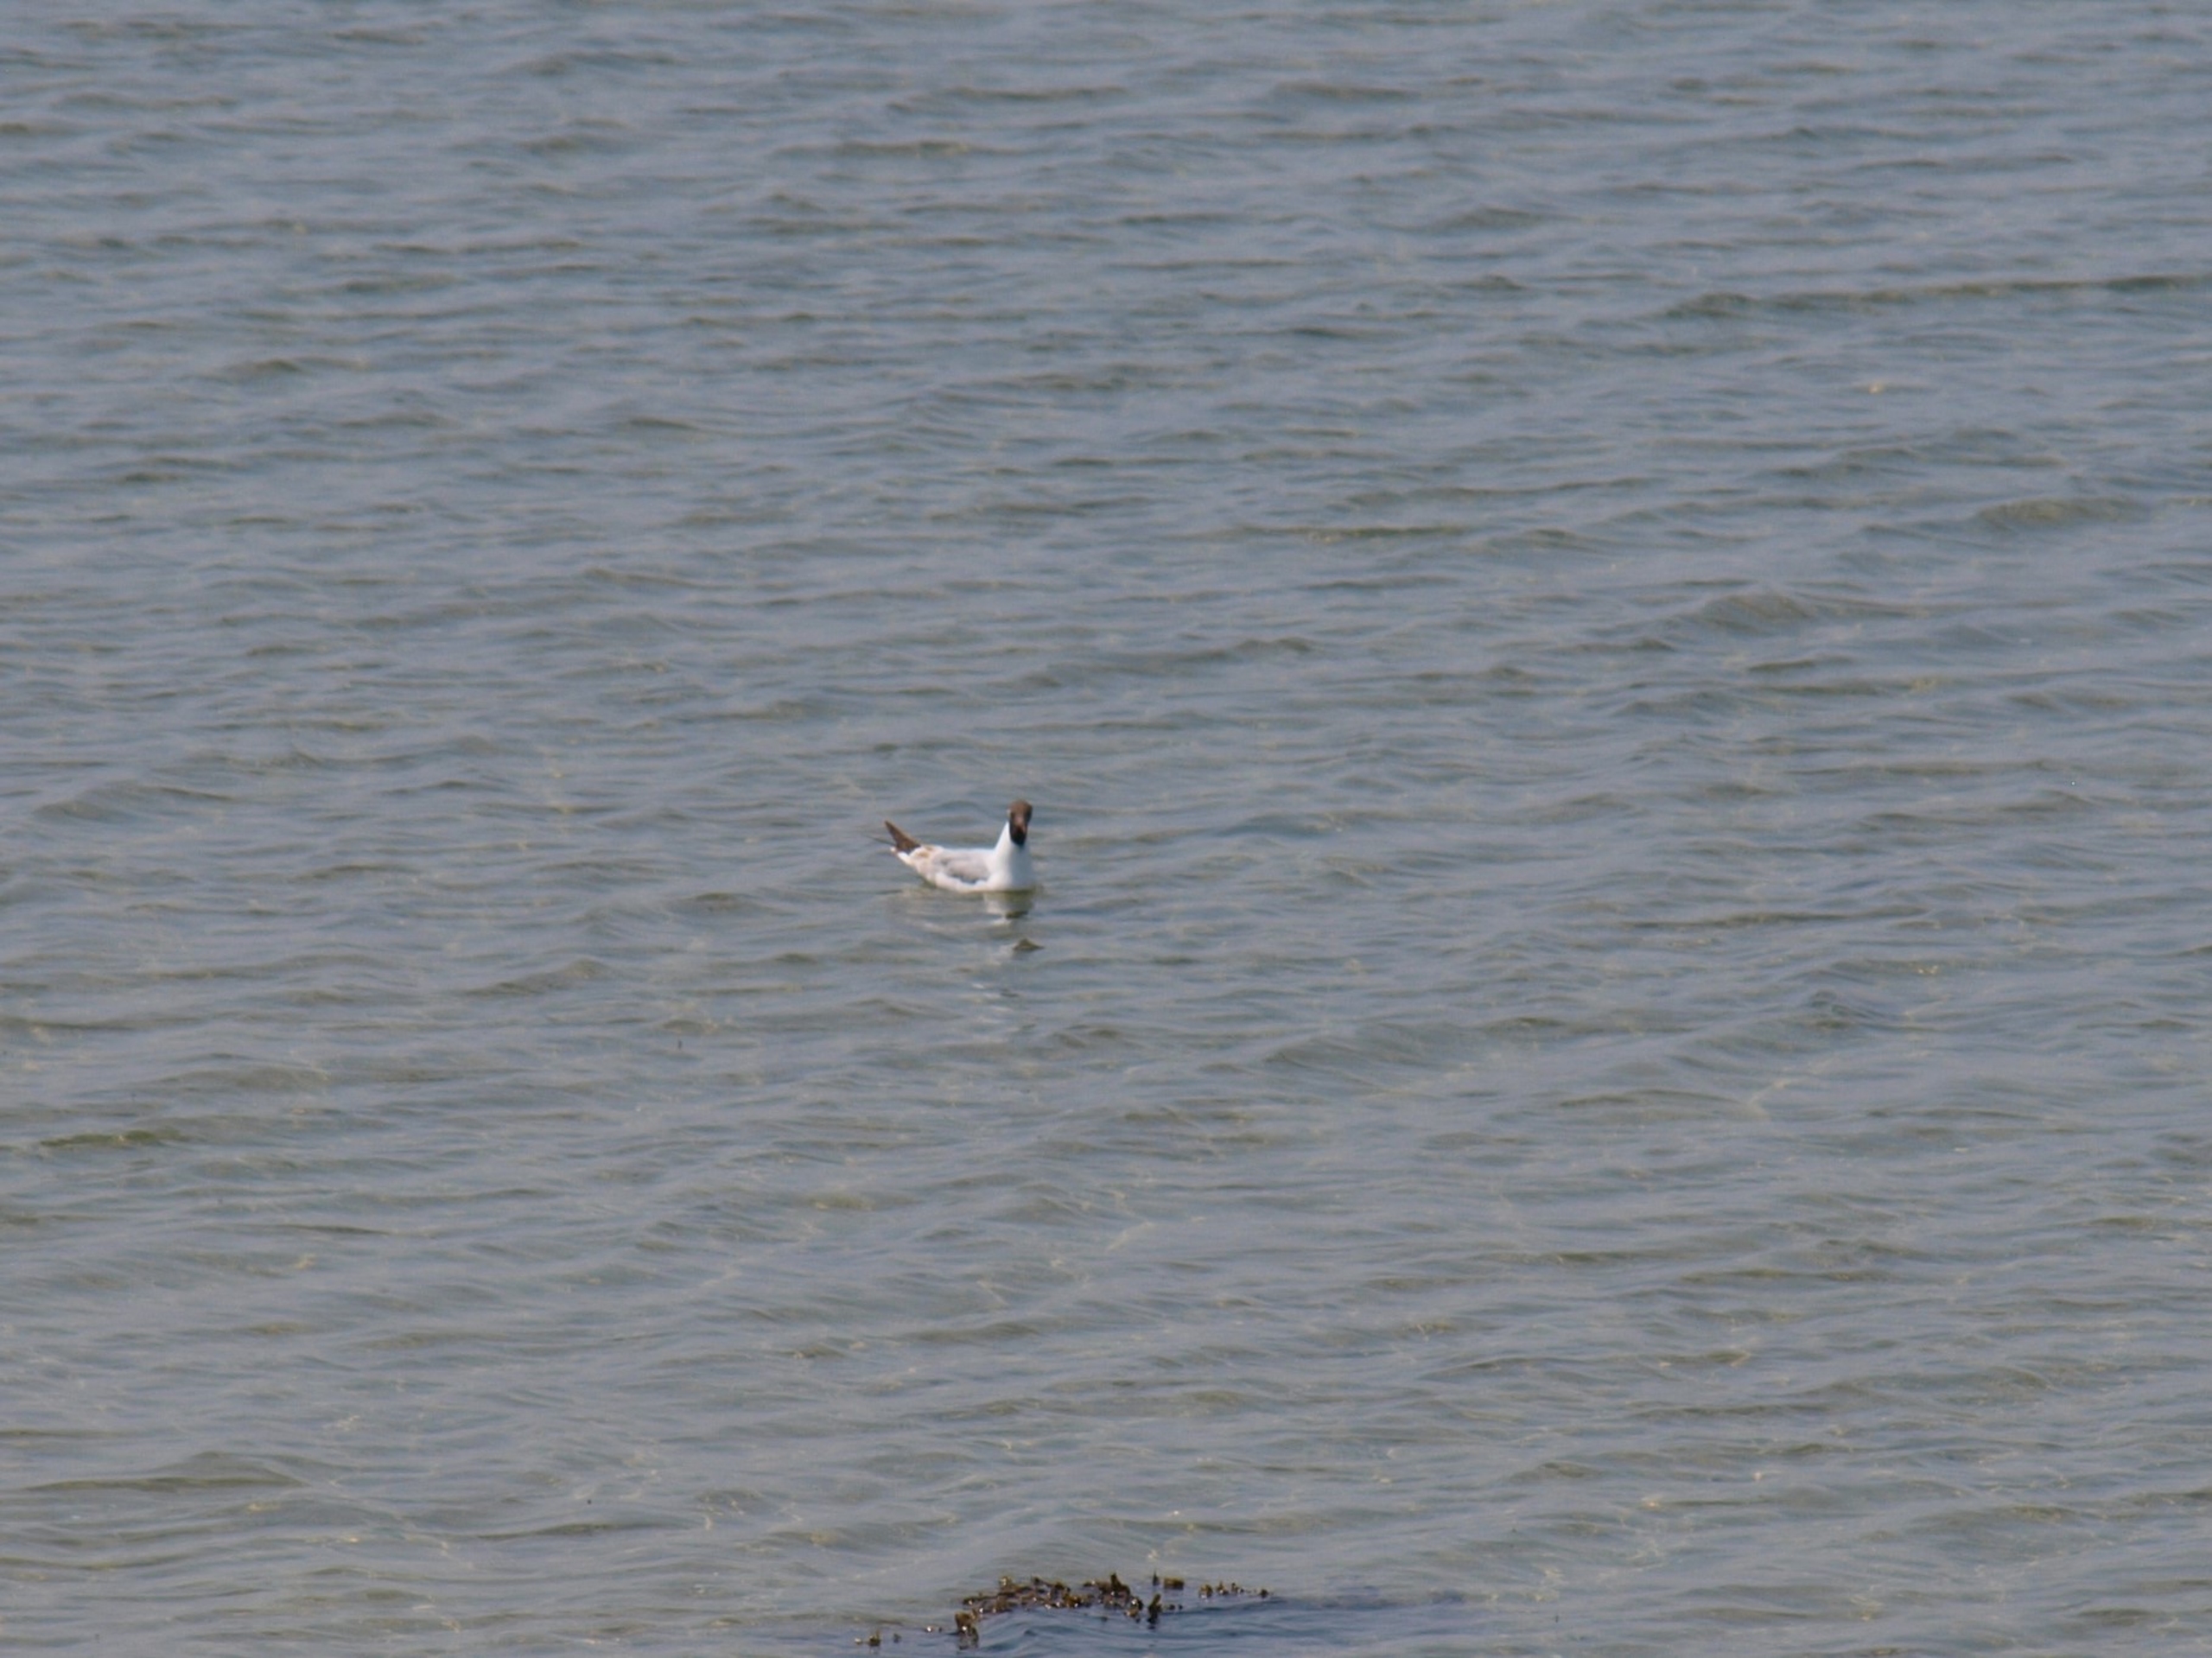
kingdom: Animalia
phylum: Chordata
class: Aves
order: Charadriiformes
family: Laridae
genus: Chroicocephalus
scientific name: Chroicocephalus ridibundus
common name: Hættemåge
